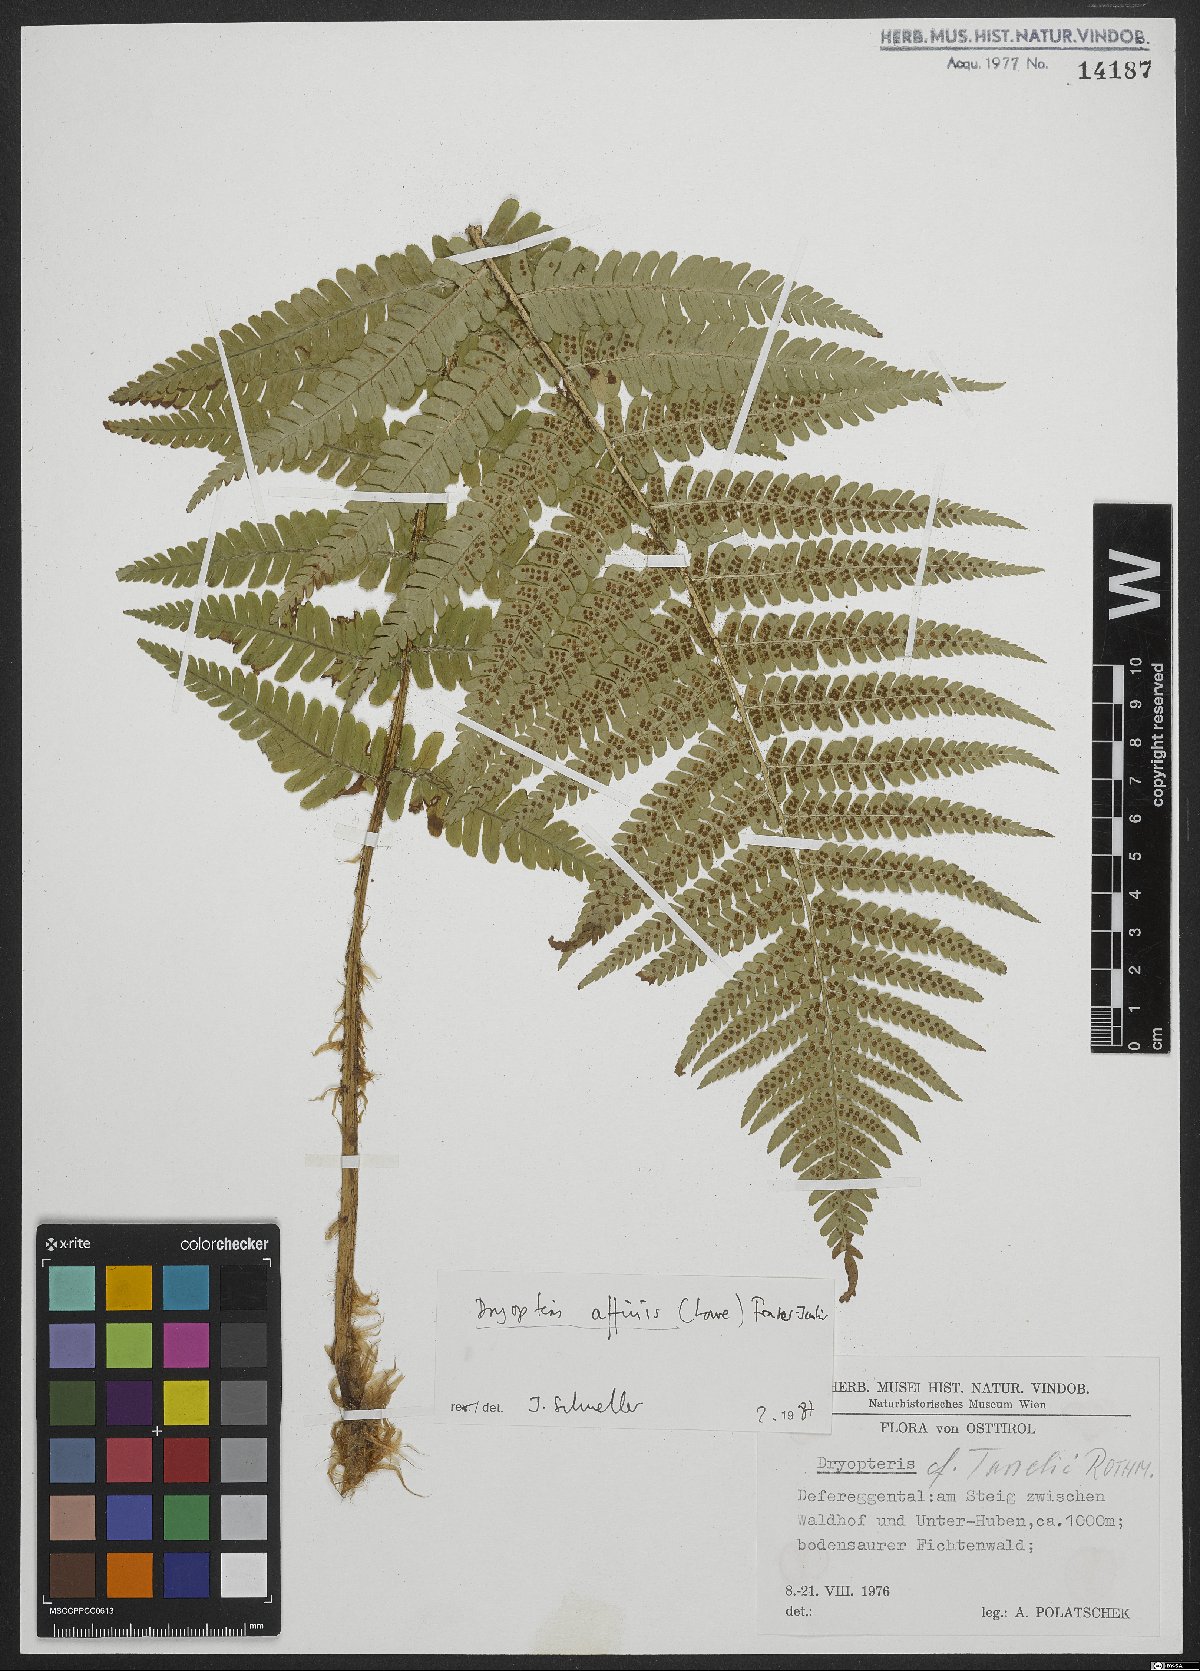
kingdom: Plantae
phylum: Tracheophyta
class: Polypodiopsida
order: Polypodiales
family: Dryopteridaceae
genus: Dryopteris
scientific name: Dryopteris borreri
